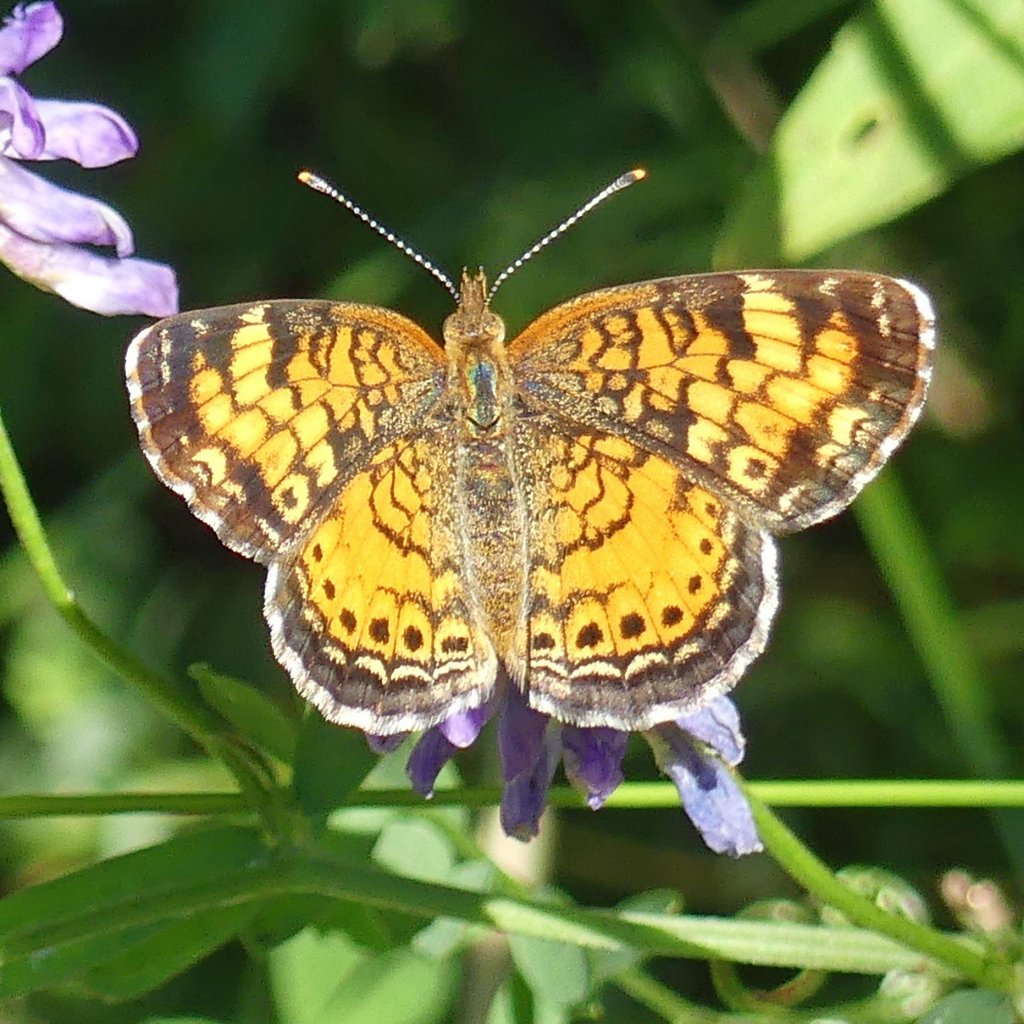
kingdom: Animalia
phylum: Arthropoda
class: Insecta
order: Lepidoptera
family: Nymphalidae
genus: Phyciodes
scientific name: Phyciodes tharos
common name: Northern Crescent
